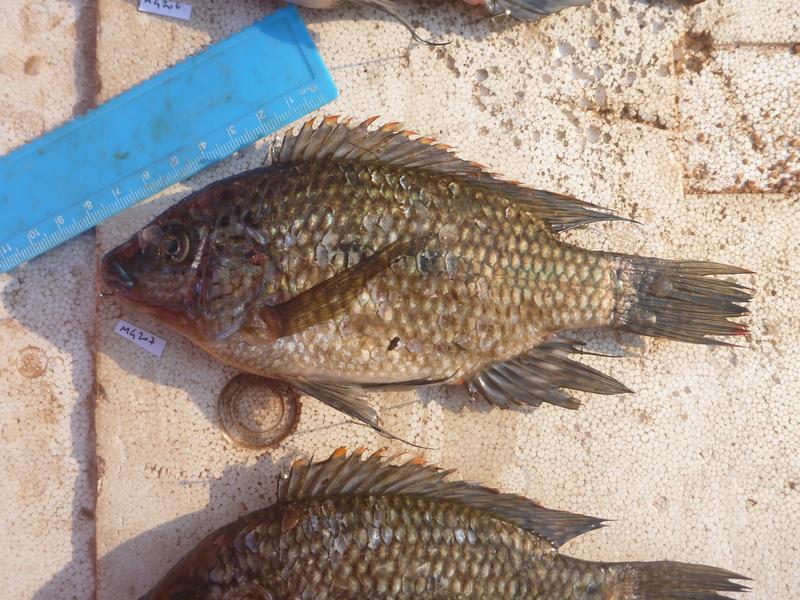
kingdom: Animalia
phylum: Chordata
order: Perciformes
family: Cichlidae
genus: Oreochromis
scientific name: Oreochromis karomo
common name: Karomo
